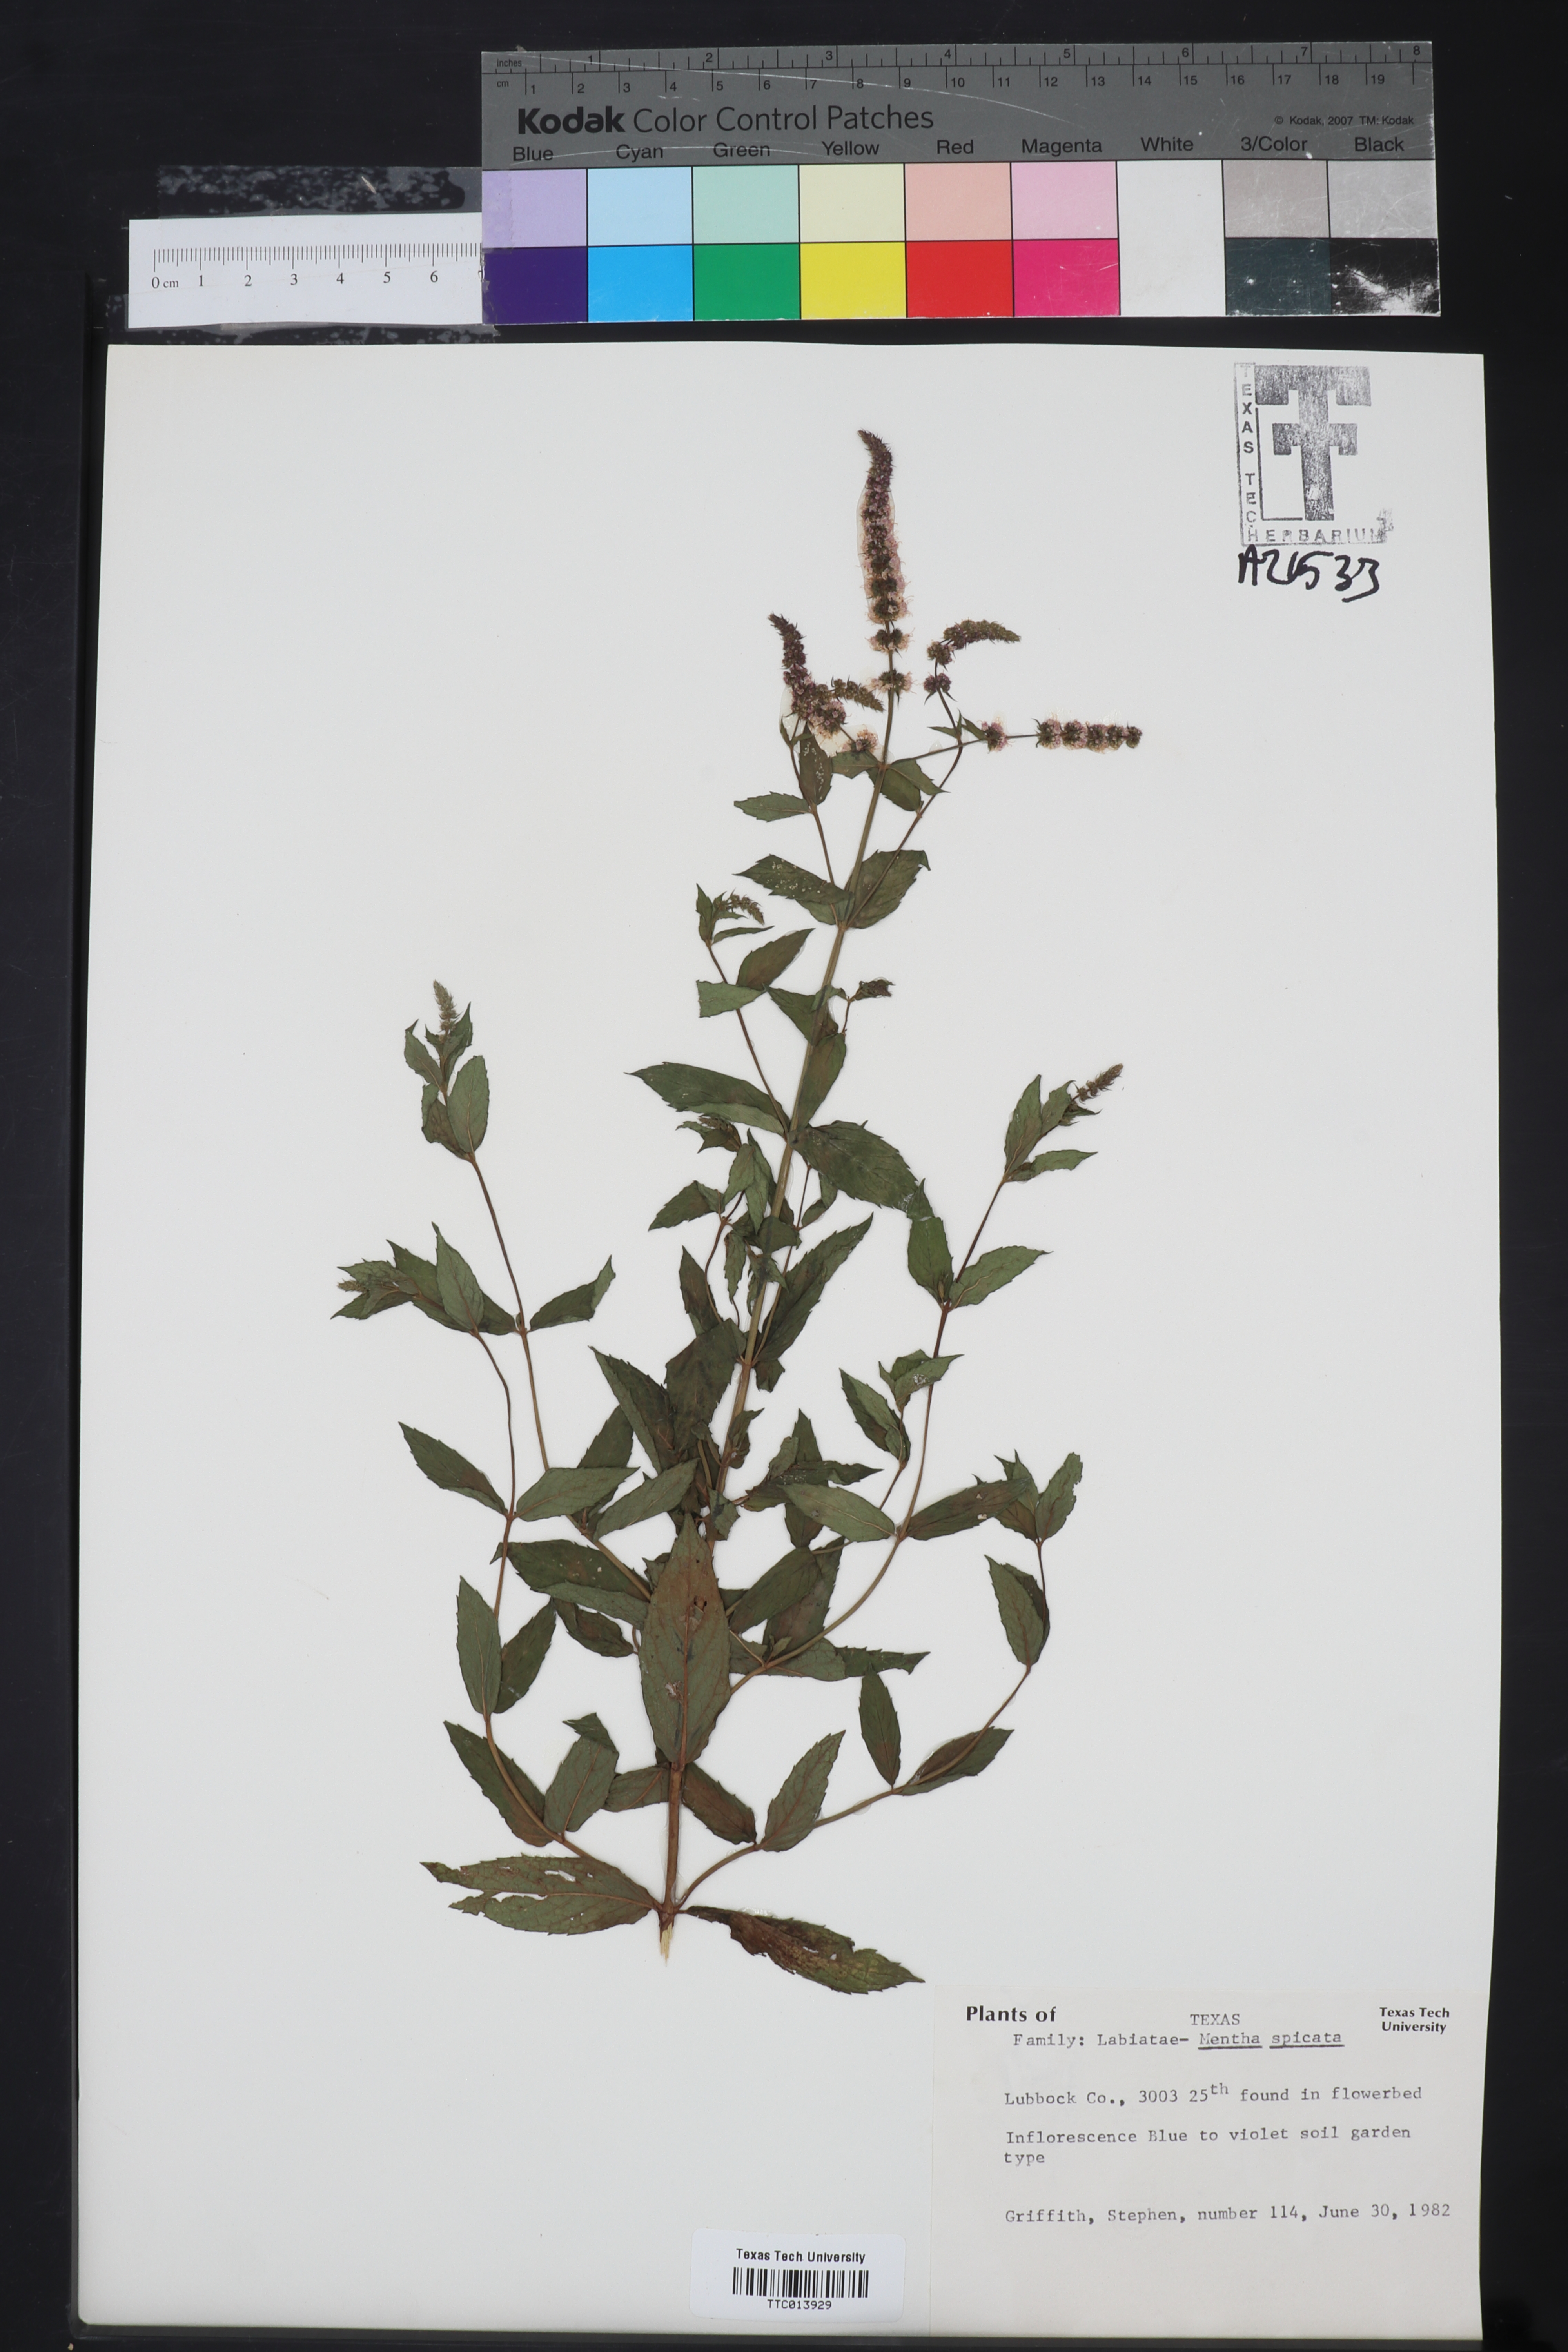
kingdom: Plantae
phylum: Tracheophyta
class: Magnoliopsida
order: Lamiales
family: Lamiaceae
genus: Mentha
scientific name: Mentha spicata
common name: Spearmint
